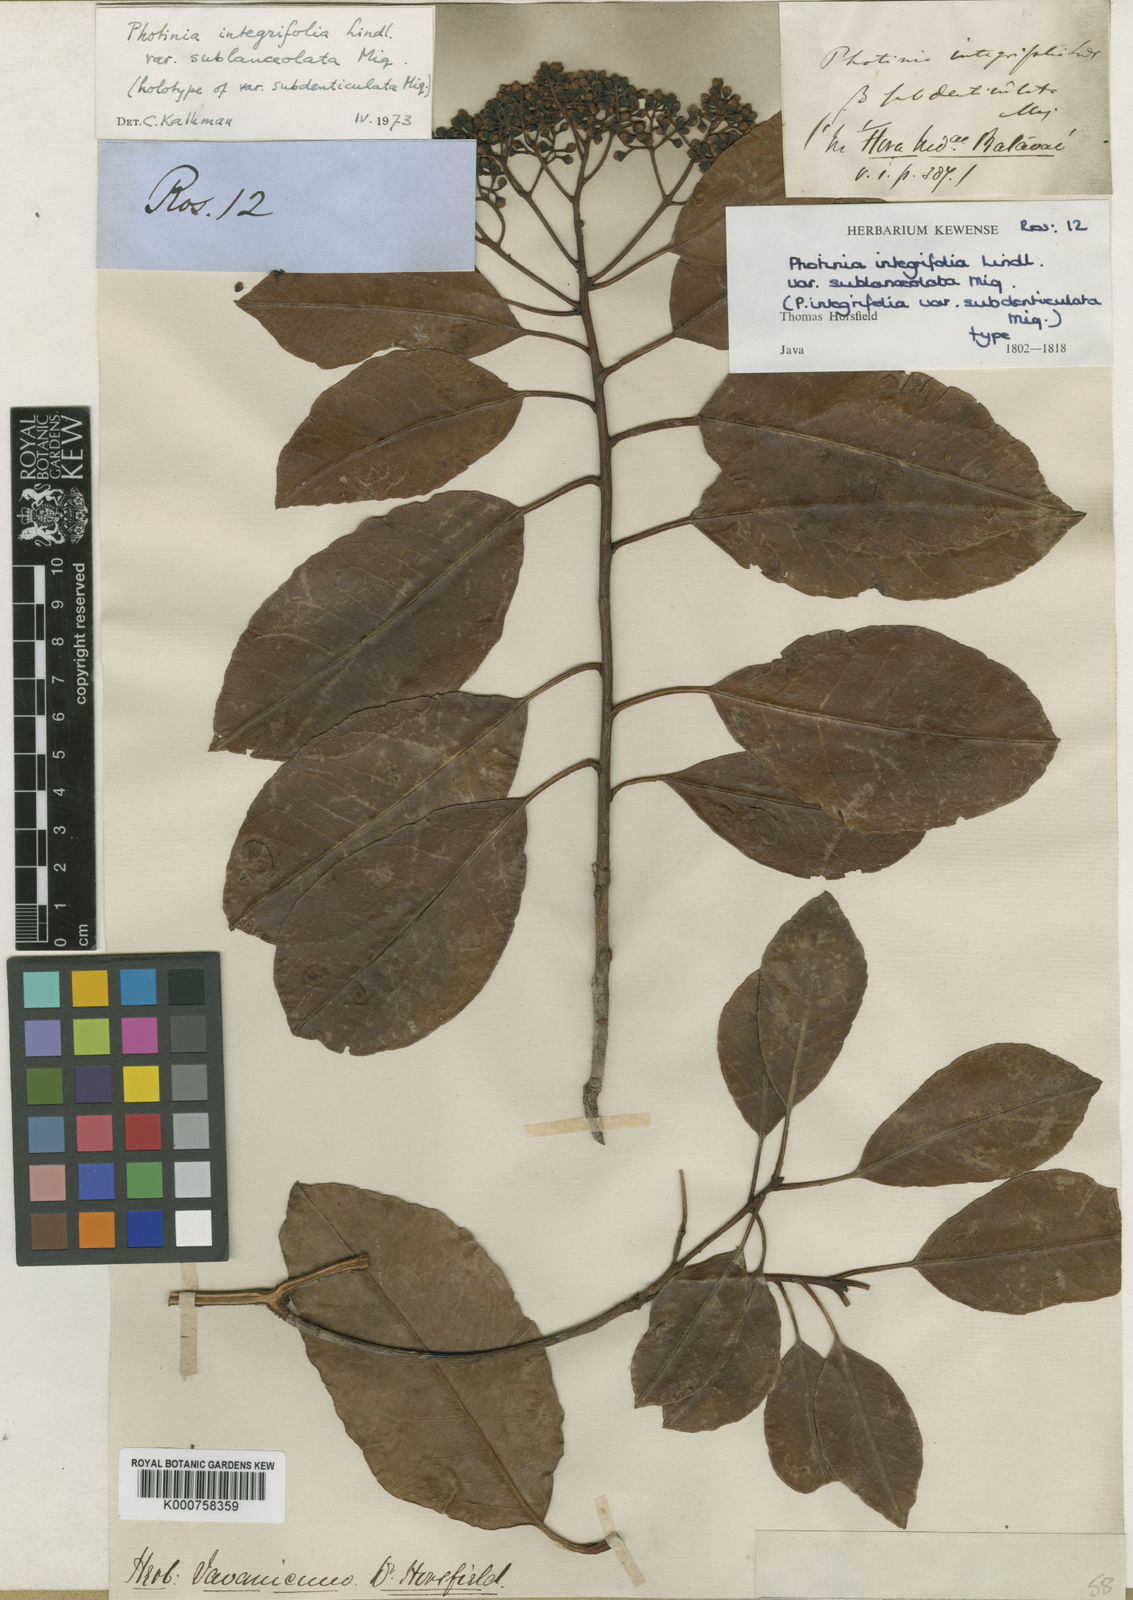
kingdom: Plantae
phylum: Tracheophyta
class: Magnoliopsida
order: Rosales
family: Rosaceae
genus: Photinia
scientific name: Photinia integrifolia
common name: Himalayan chokeberry
